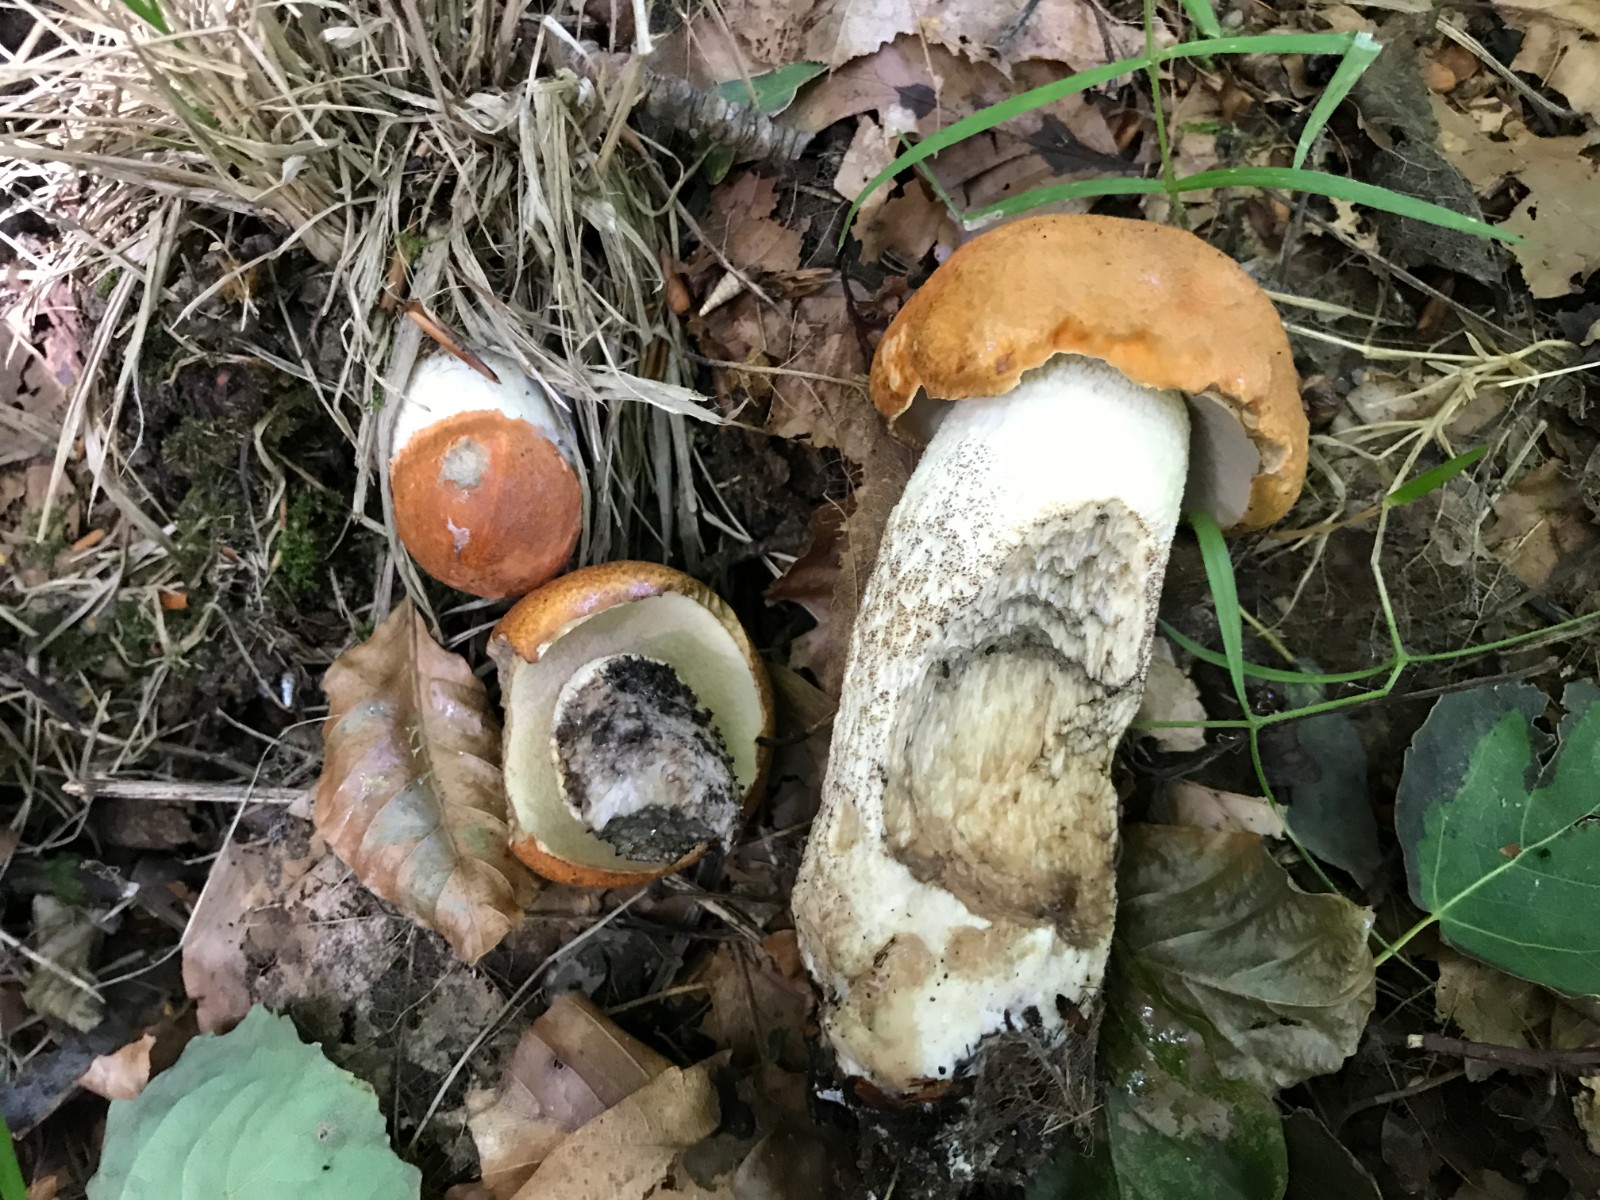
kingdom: Fungi
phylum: Basidiomycota
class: Agaricomycetes
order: Boletales
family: Boletaceae
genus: Leccinum
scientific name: Leccinum albostipitatum
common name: aspe-skælrørhat
